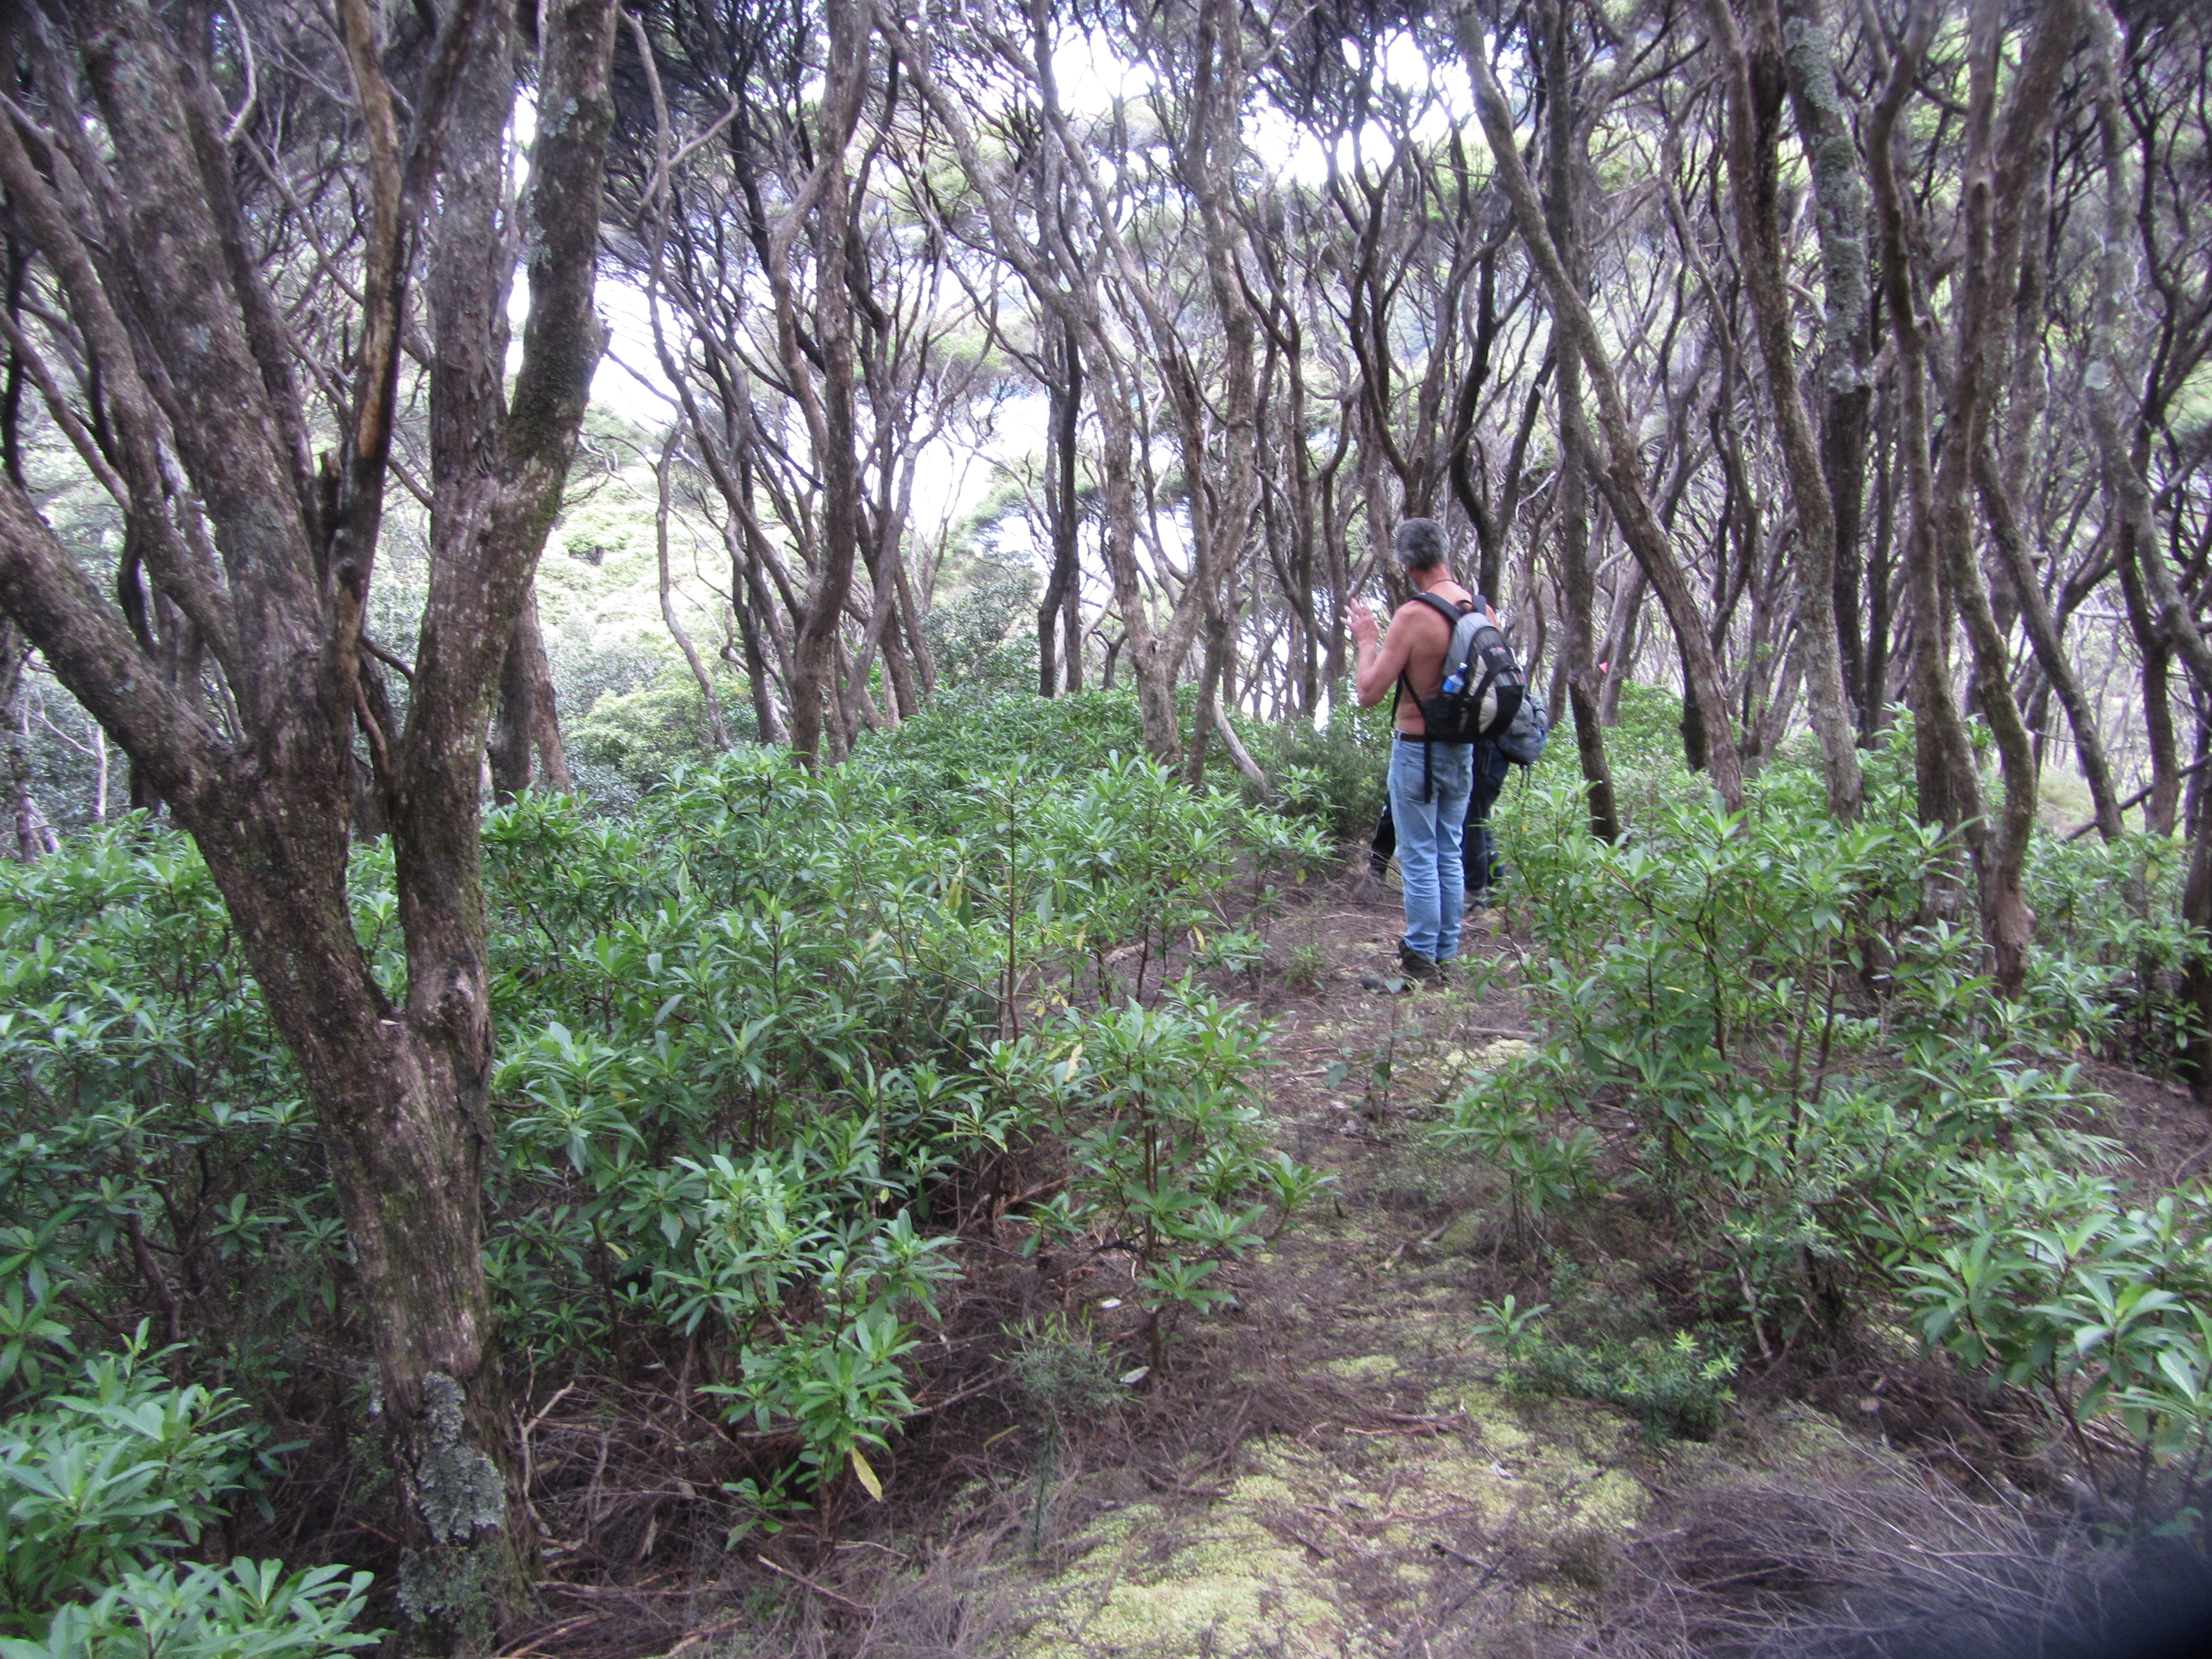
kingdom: Plantae
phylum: Tracheophyta
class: Magnoliopsida
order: Asterales
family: Asteraceae
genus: Brachyglottis
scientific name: Brachyglottis kirkii
